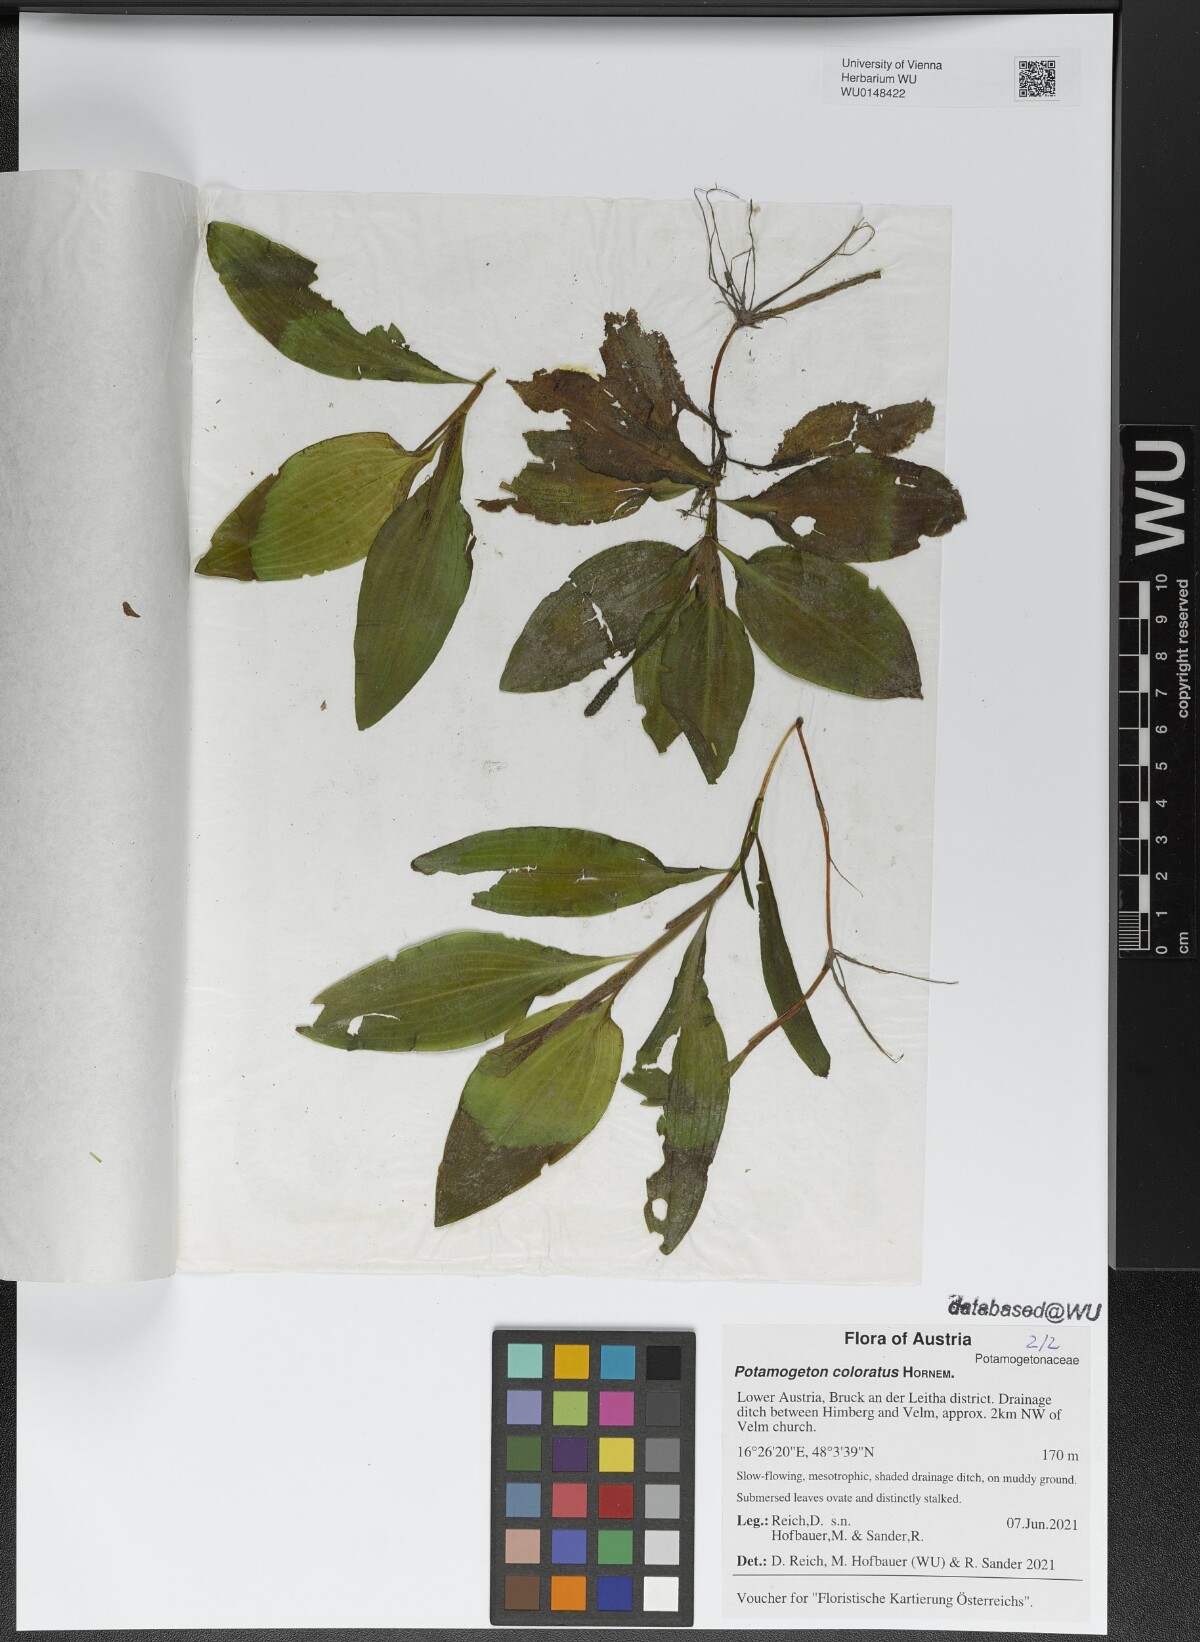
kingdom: Plantae
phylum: Tracheophyta
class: Liliopsida
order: Alismatales
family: Potamogetonaceae
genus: Potamogeton
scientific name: Potamogeton coloratus
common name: Fen pondweed
